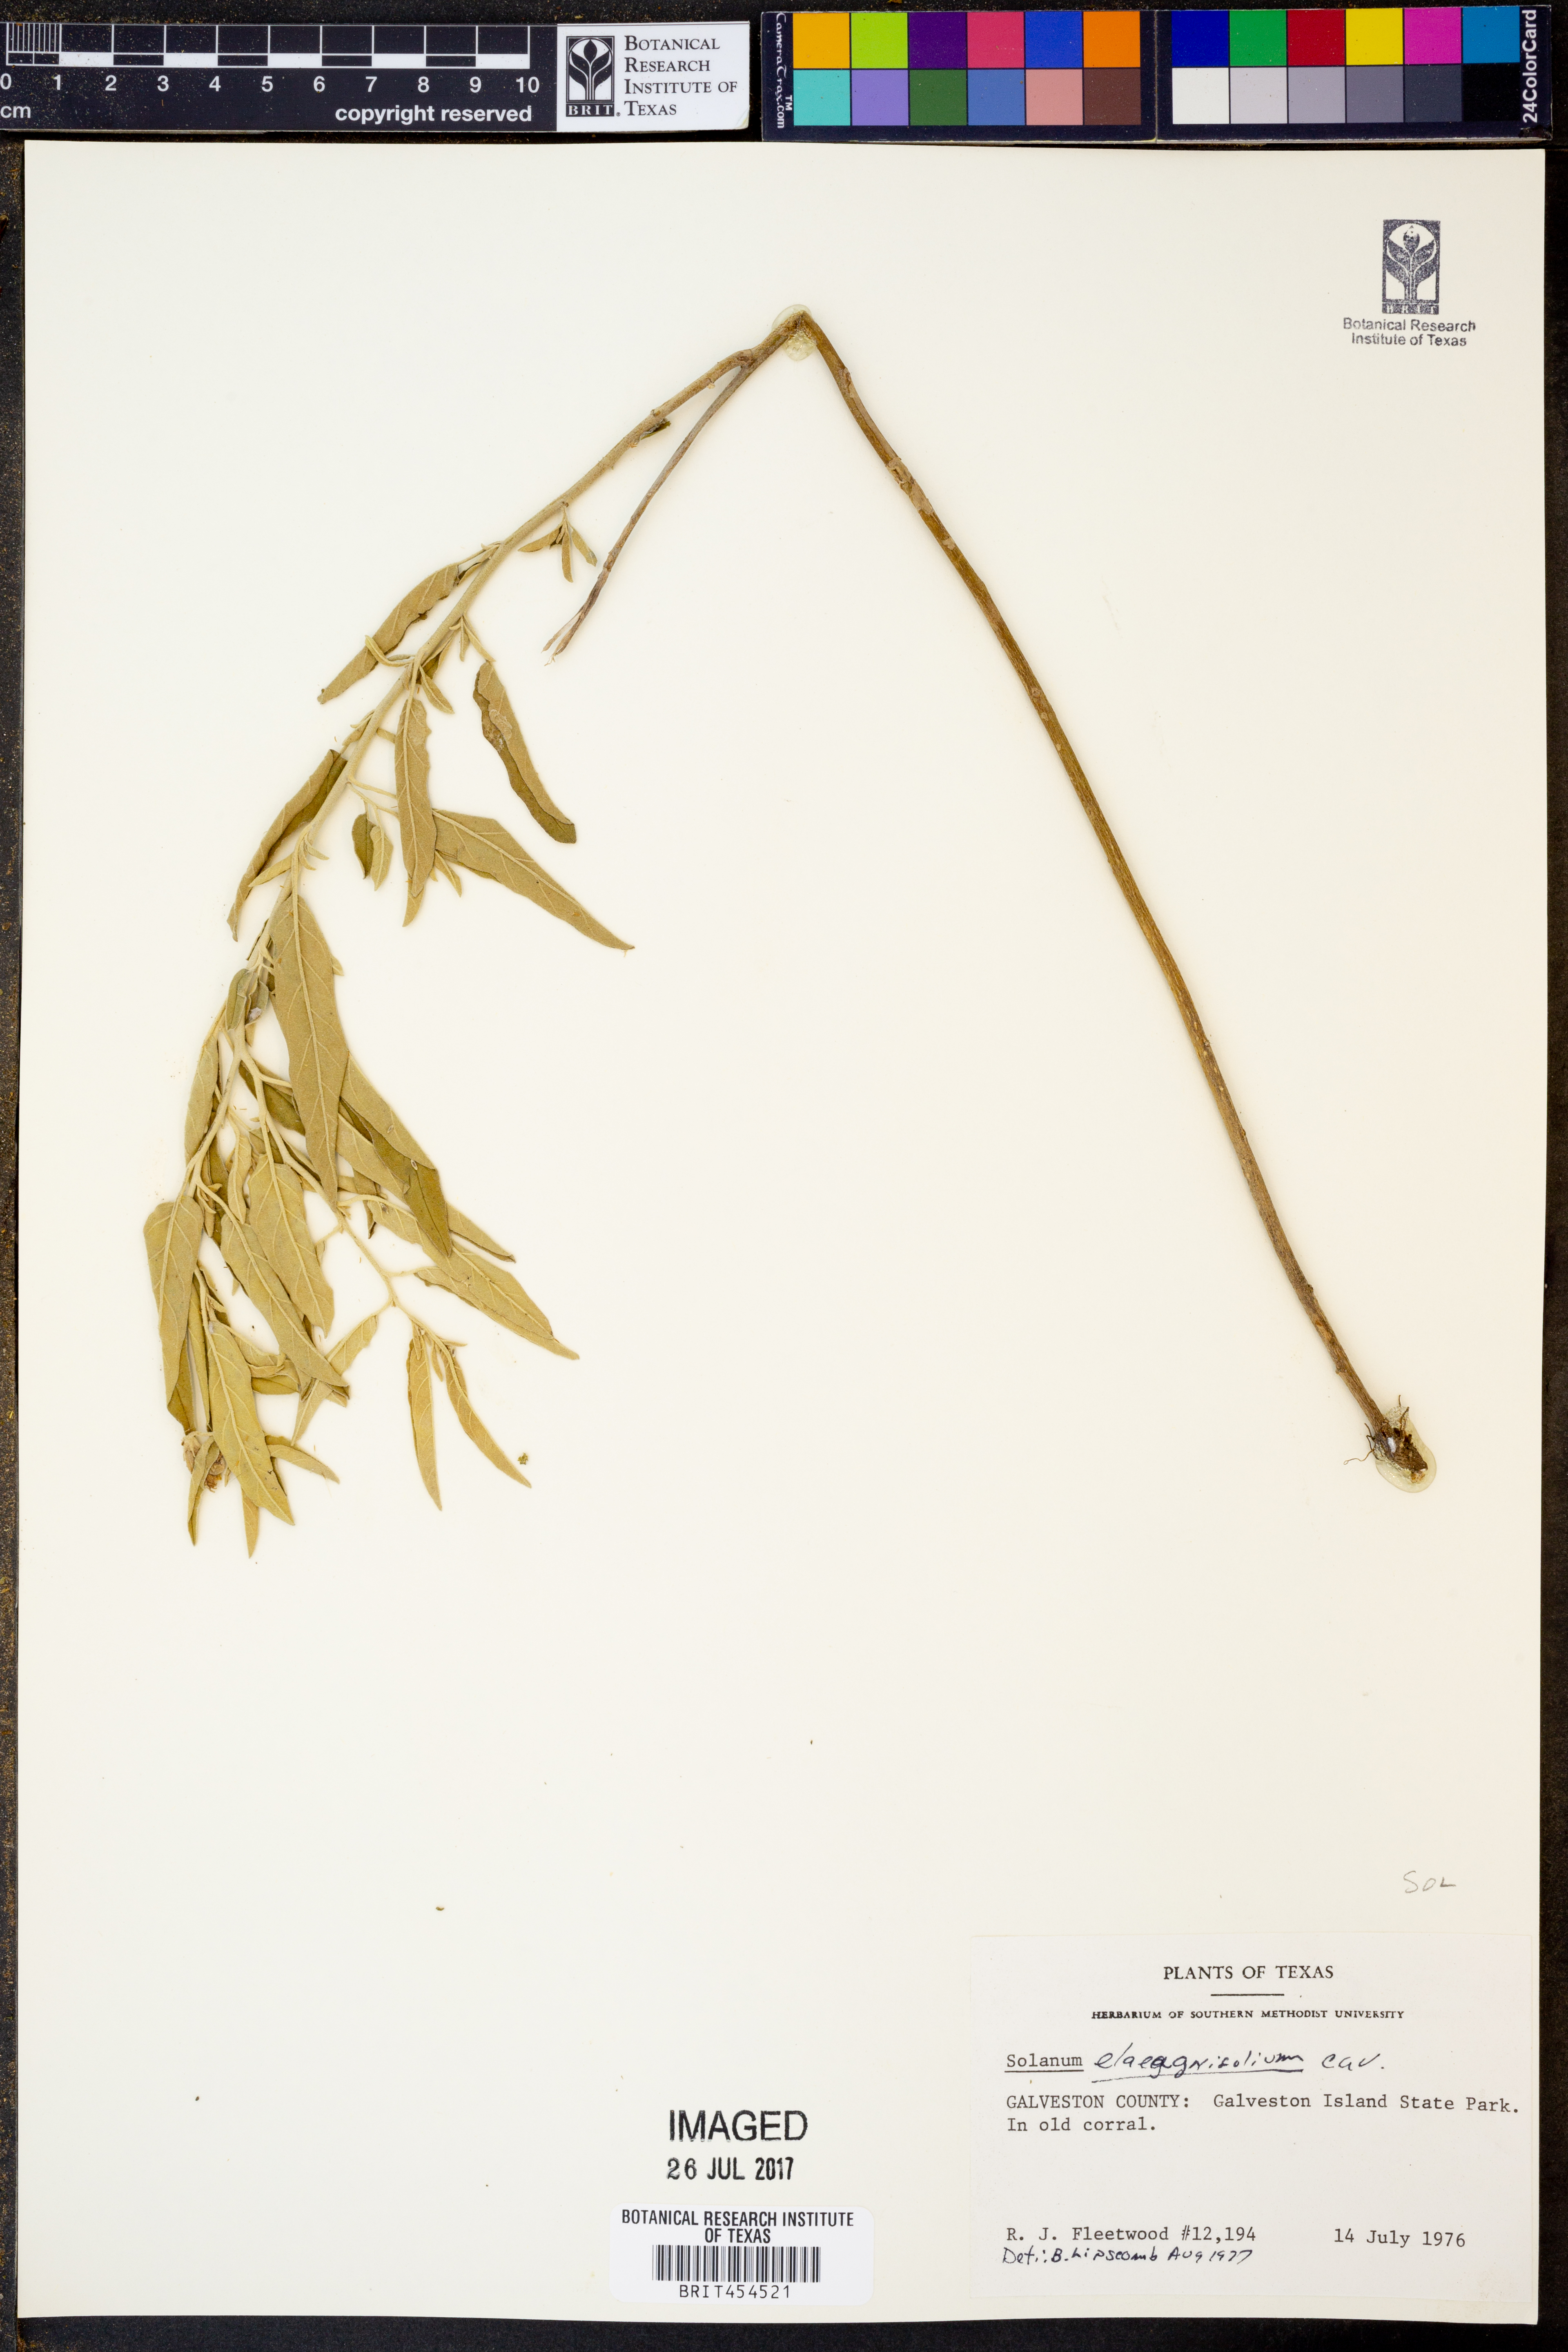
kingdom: Plantae
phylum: Tracheophyta
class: Magnoliopsida
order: Solanales
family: Solanaceae
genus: Solanum
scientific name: Solanum elaeagnifolium
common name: Silverleaf nightshade
